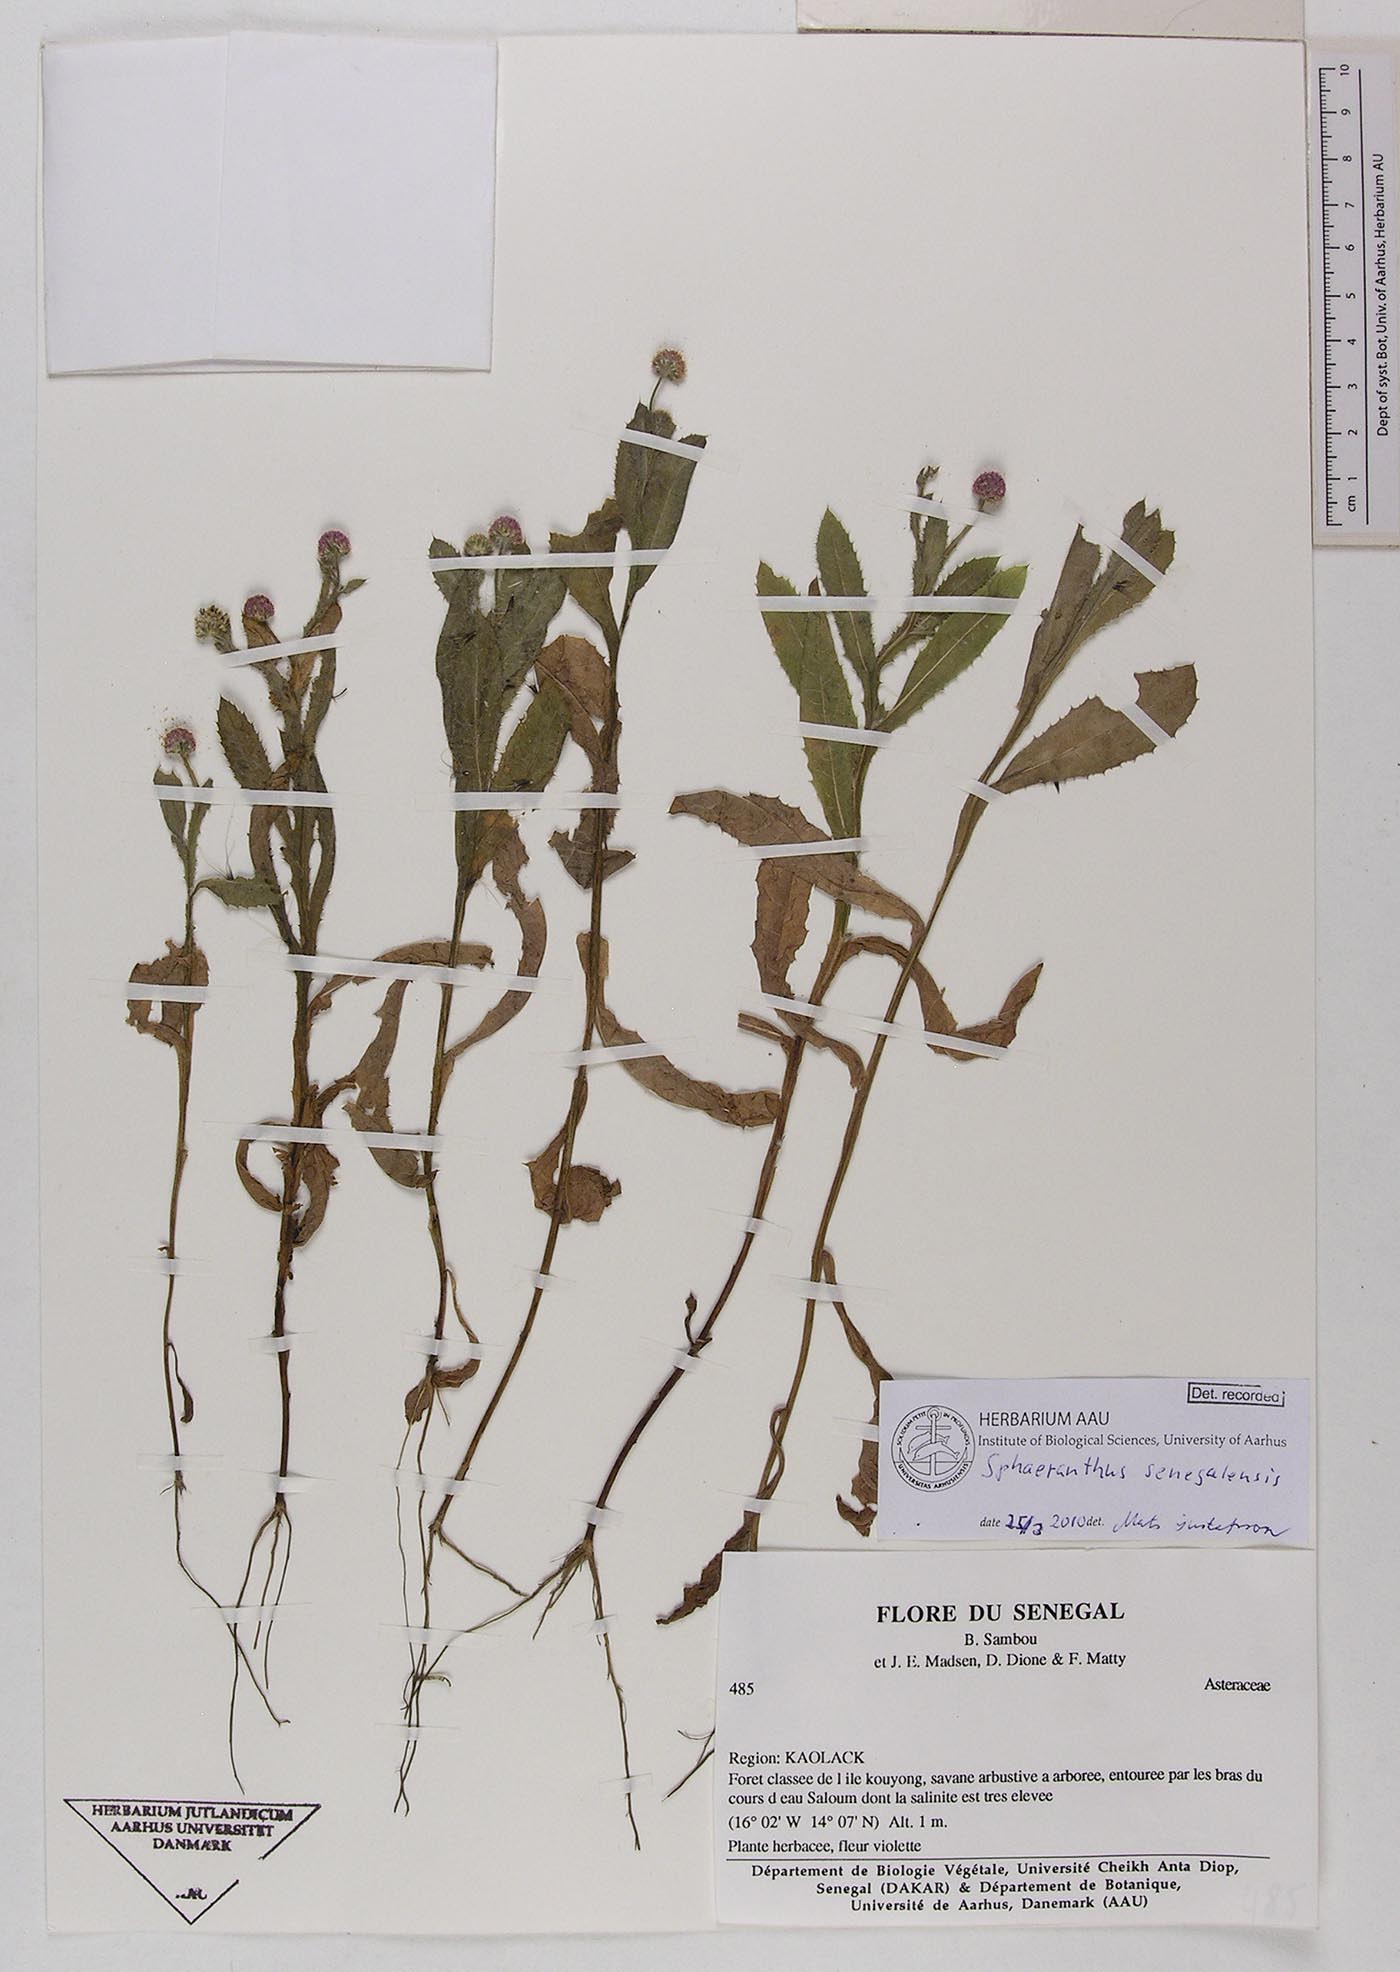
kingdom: Plantae
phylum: Tracheophyta
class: Magnoliopsida
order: Asterales
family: Asteraceae
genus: Sphaeranthus
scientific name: Sphaeranthus senegalensis
